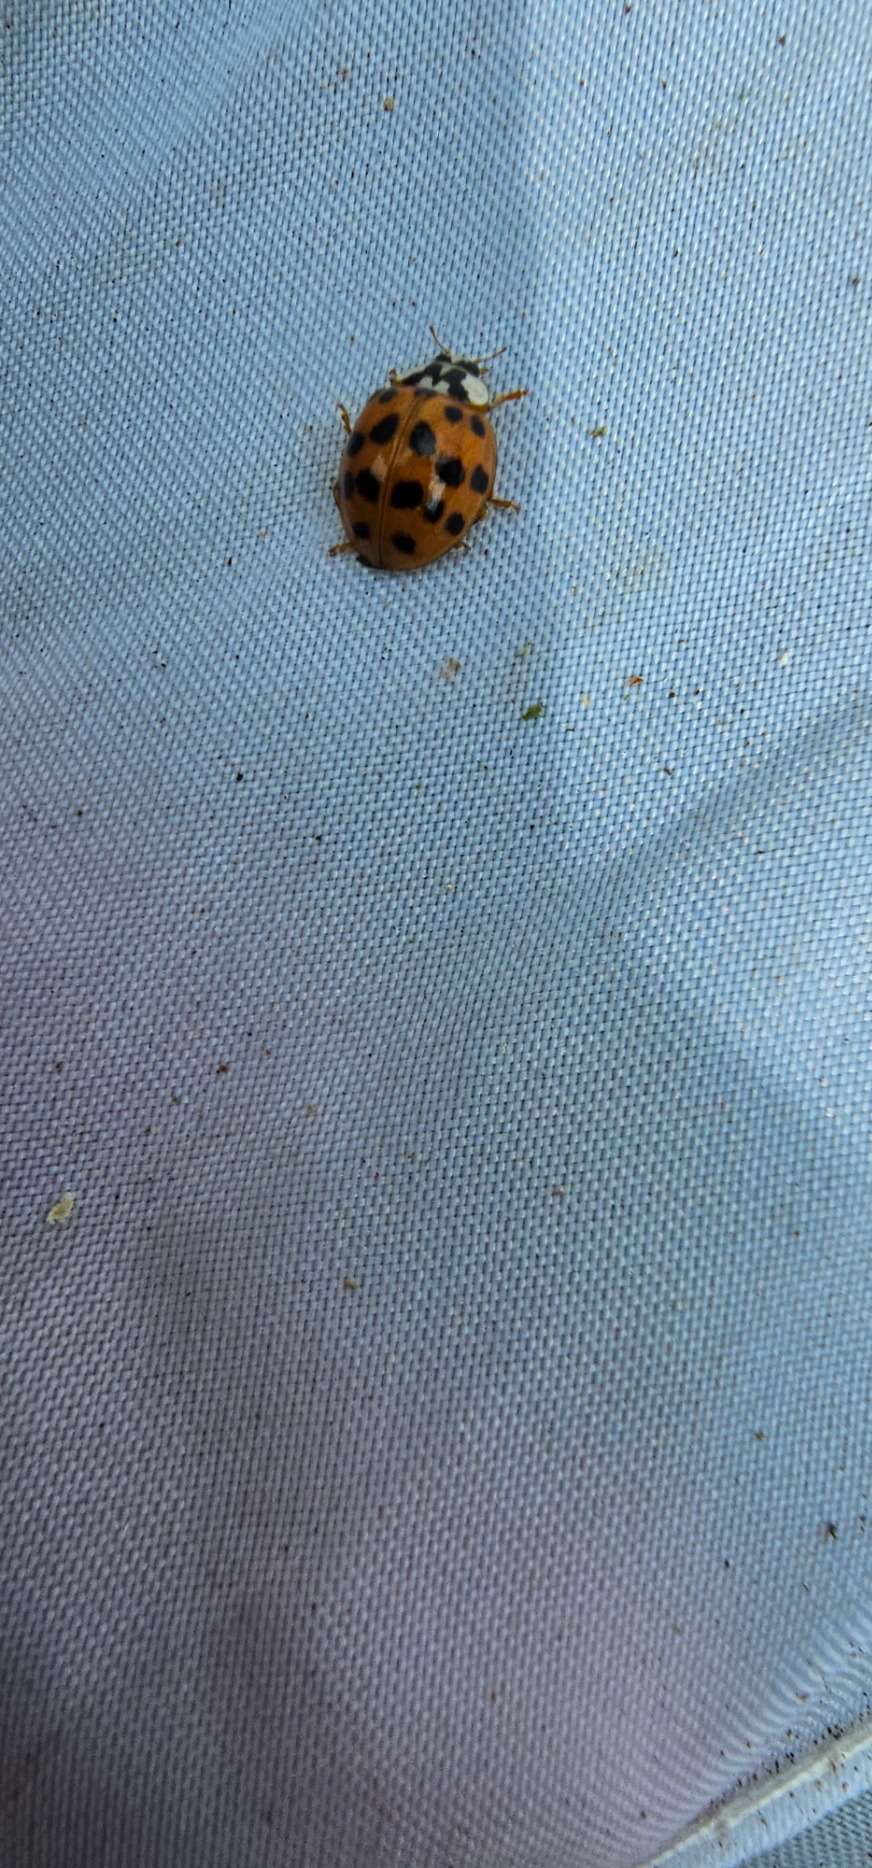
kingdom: Animalia
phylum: Arthropoda
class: Insecta
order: Coleoptera
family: Coccinellidae
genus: Harmonia
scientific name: Harmonia axyridis
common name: Harlekinmariehøne
